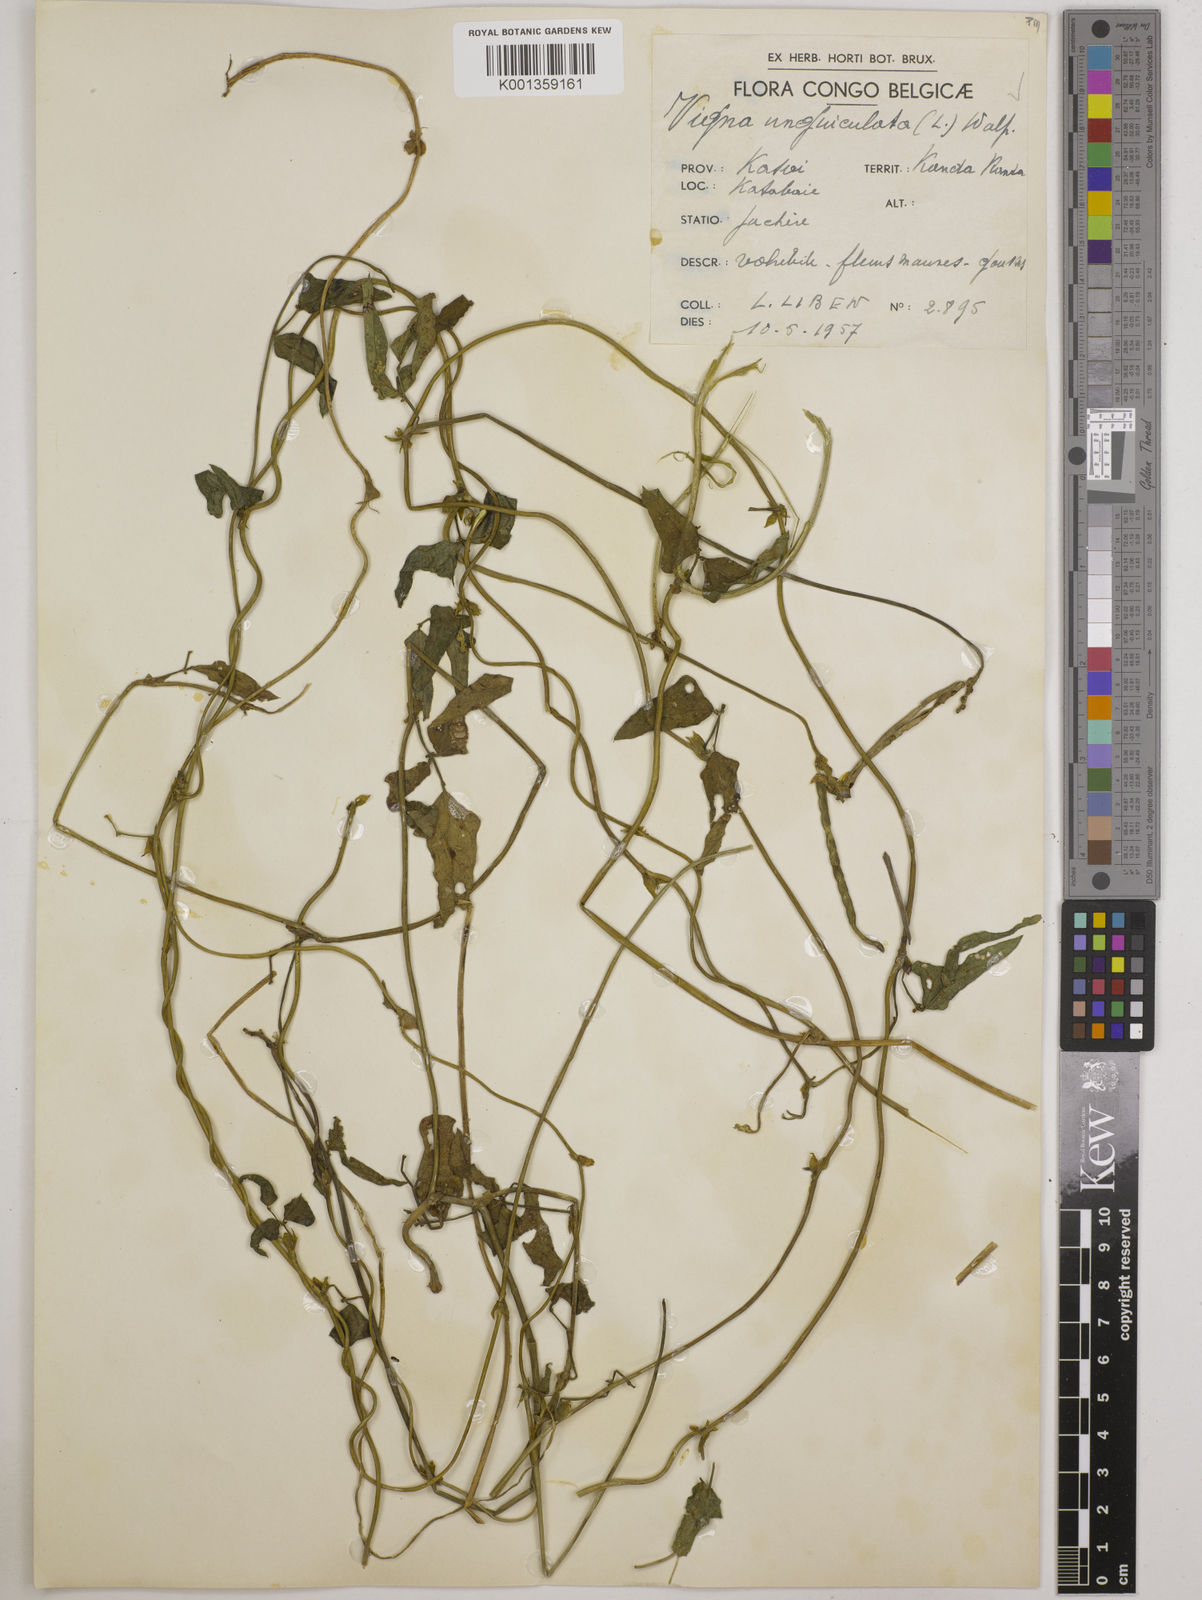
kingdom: Plantae
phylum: Tracheophyta
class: Magnoliopsida
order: Fabales
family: Fabaceae
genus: Vigna
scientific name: Vigna
